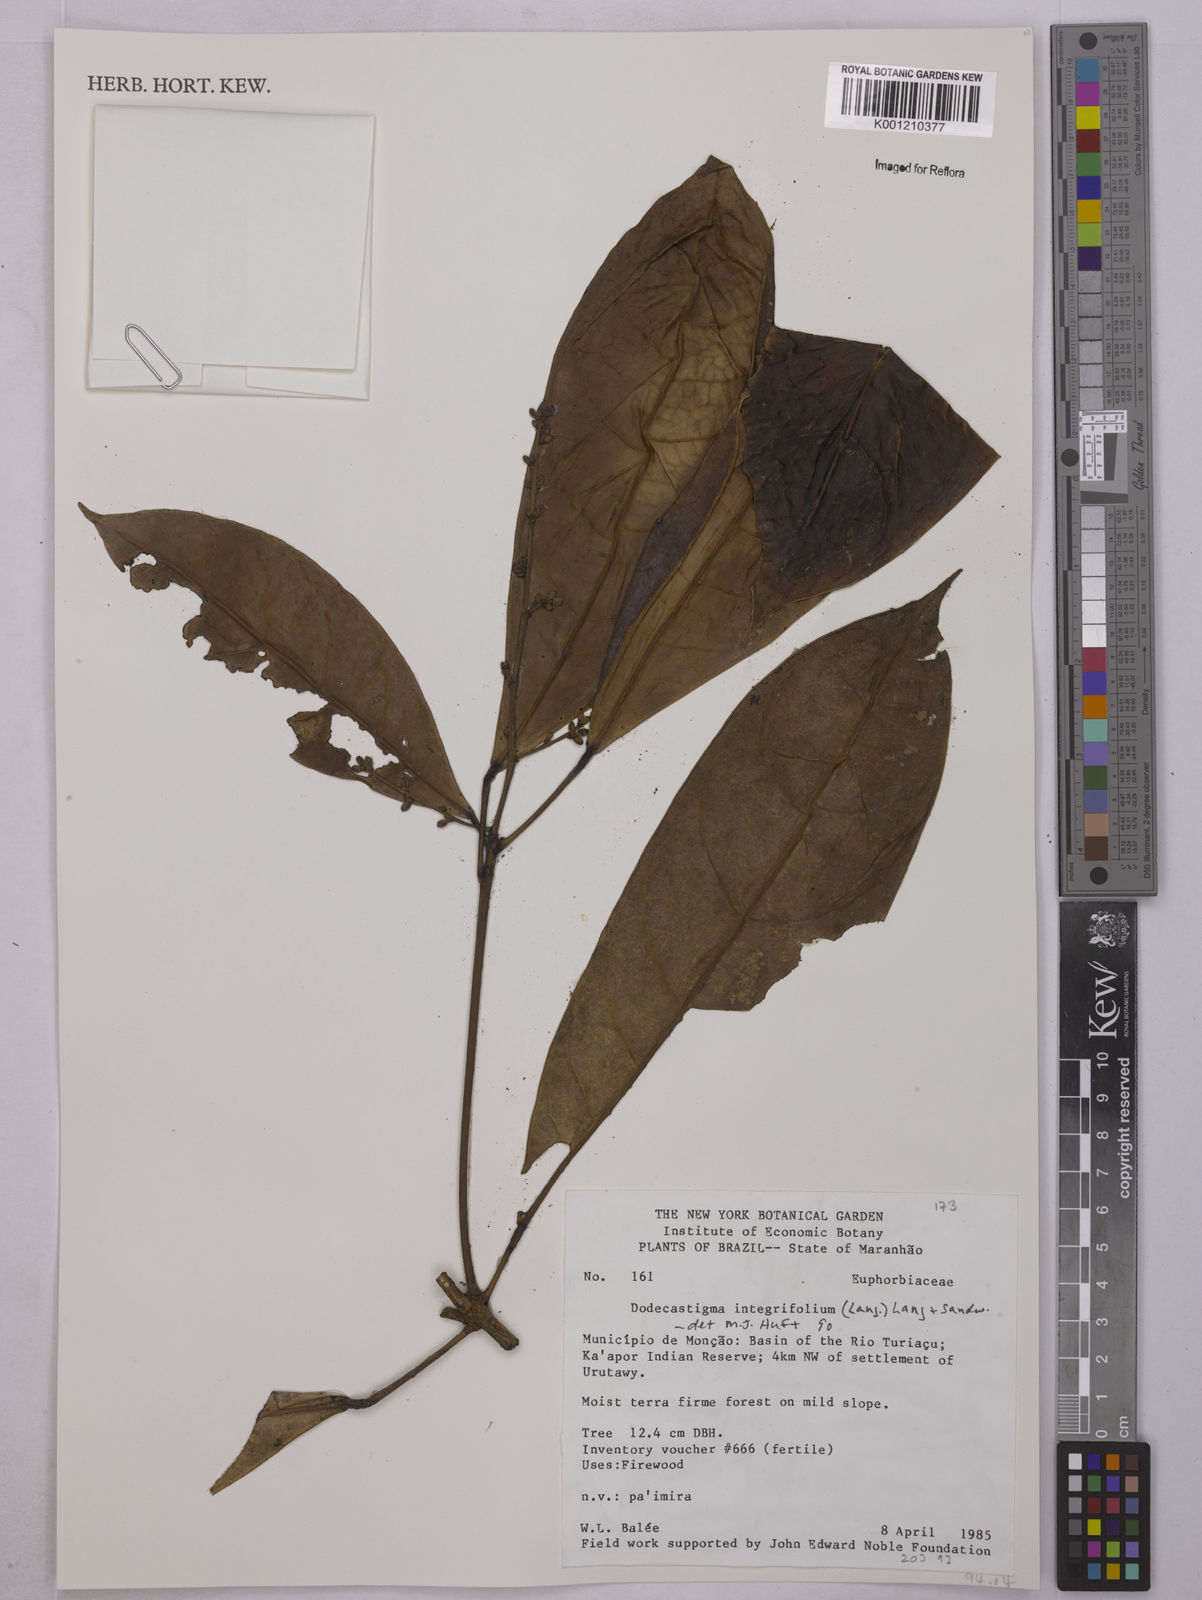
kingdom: Plantae
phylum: Tracheophyta
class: Magnoliopsida
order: Malpighiales
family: Euphorbiaceae
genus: Dodecastigma
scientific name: Dodecastigma integrifolium
